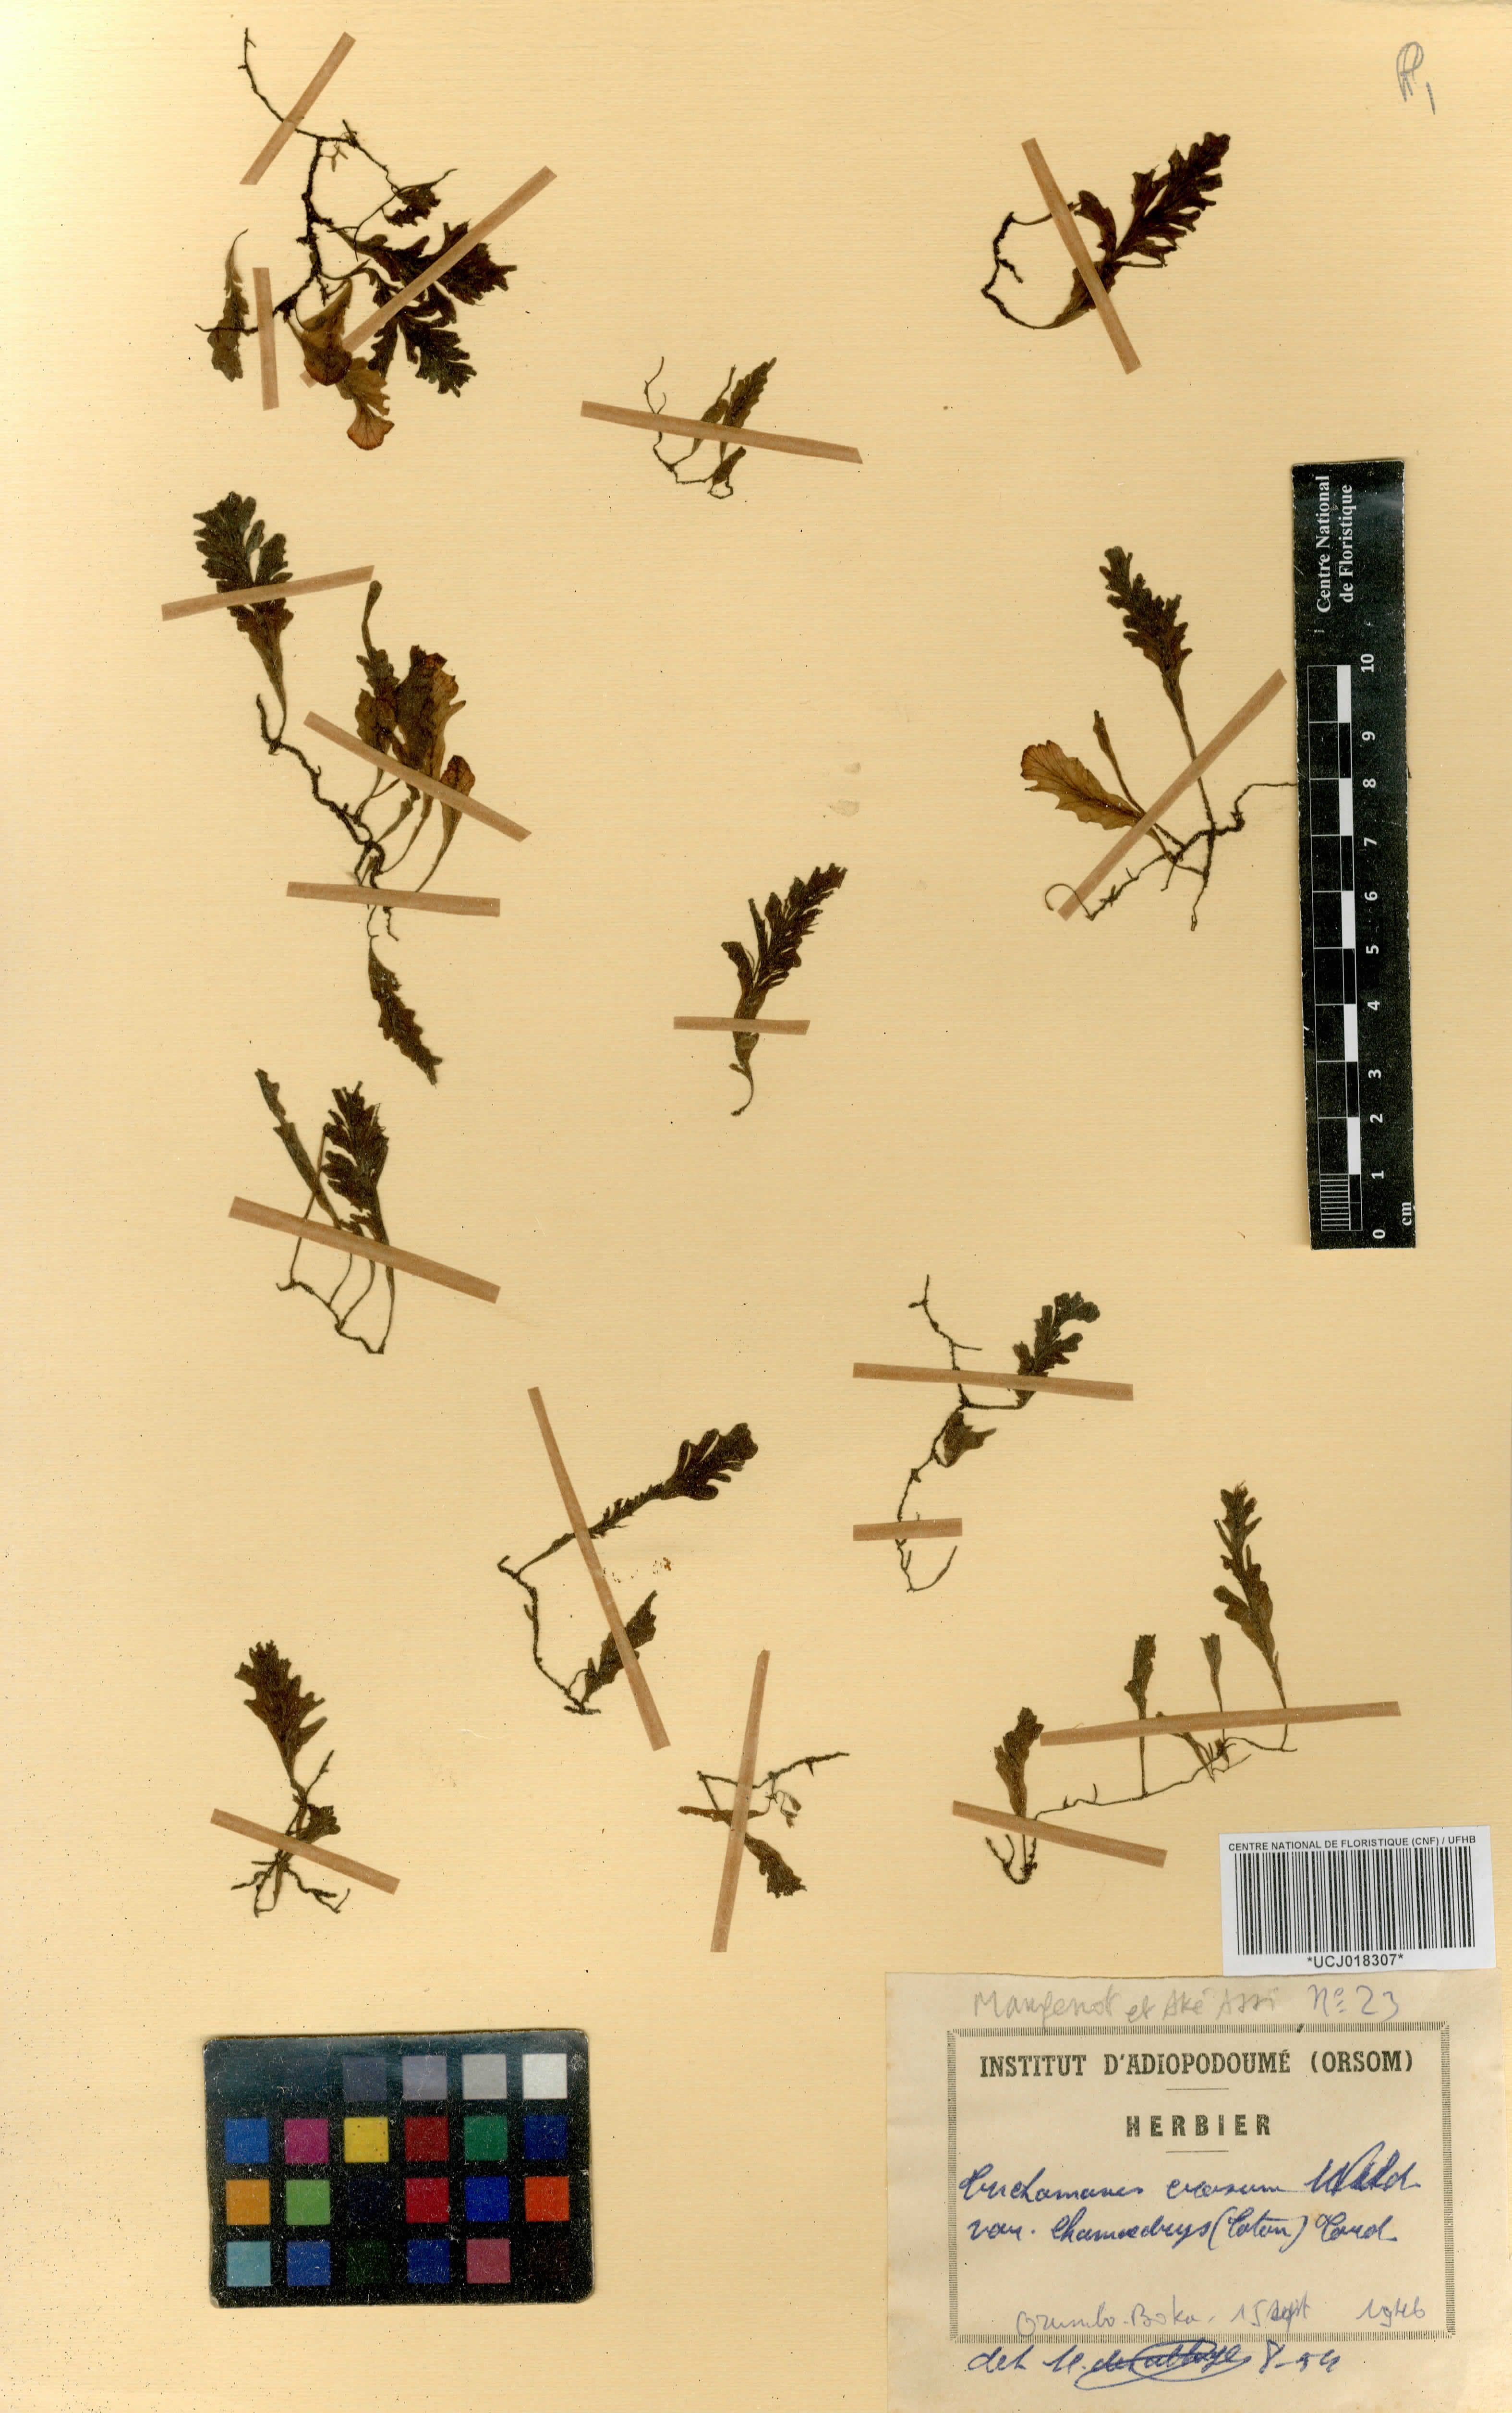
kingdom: Plantae
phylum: Tracheophyta
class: Polypodiopsida
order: Hymenophyllales
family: Hymenophyllaceae
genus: Didymoglossum
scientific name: Didymoglossum erosum
